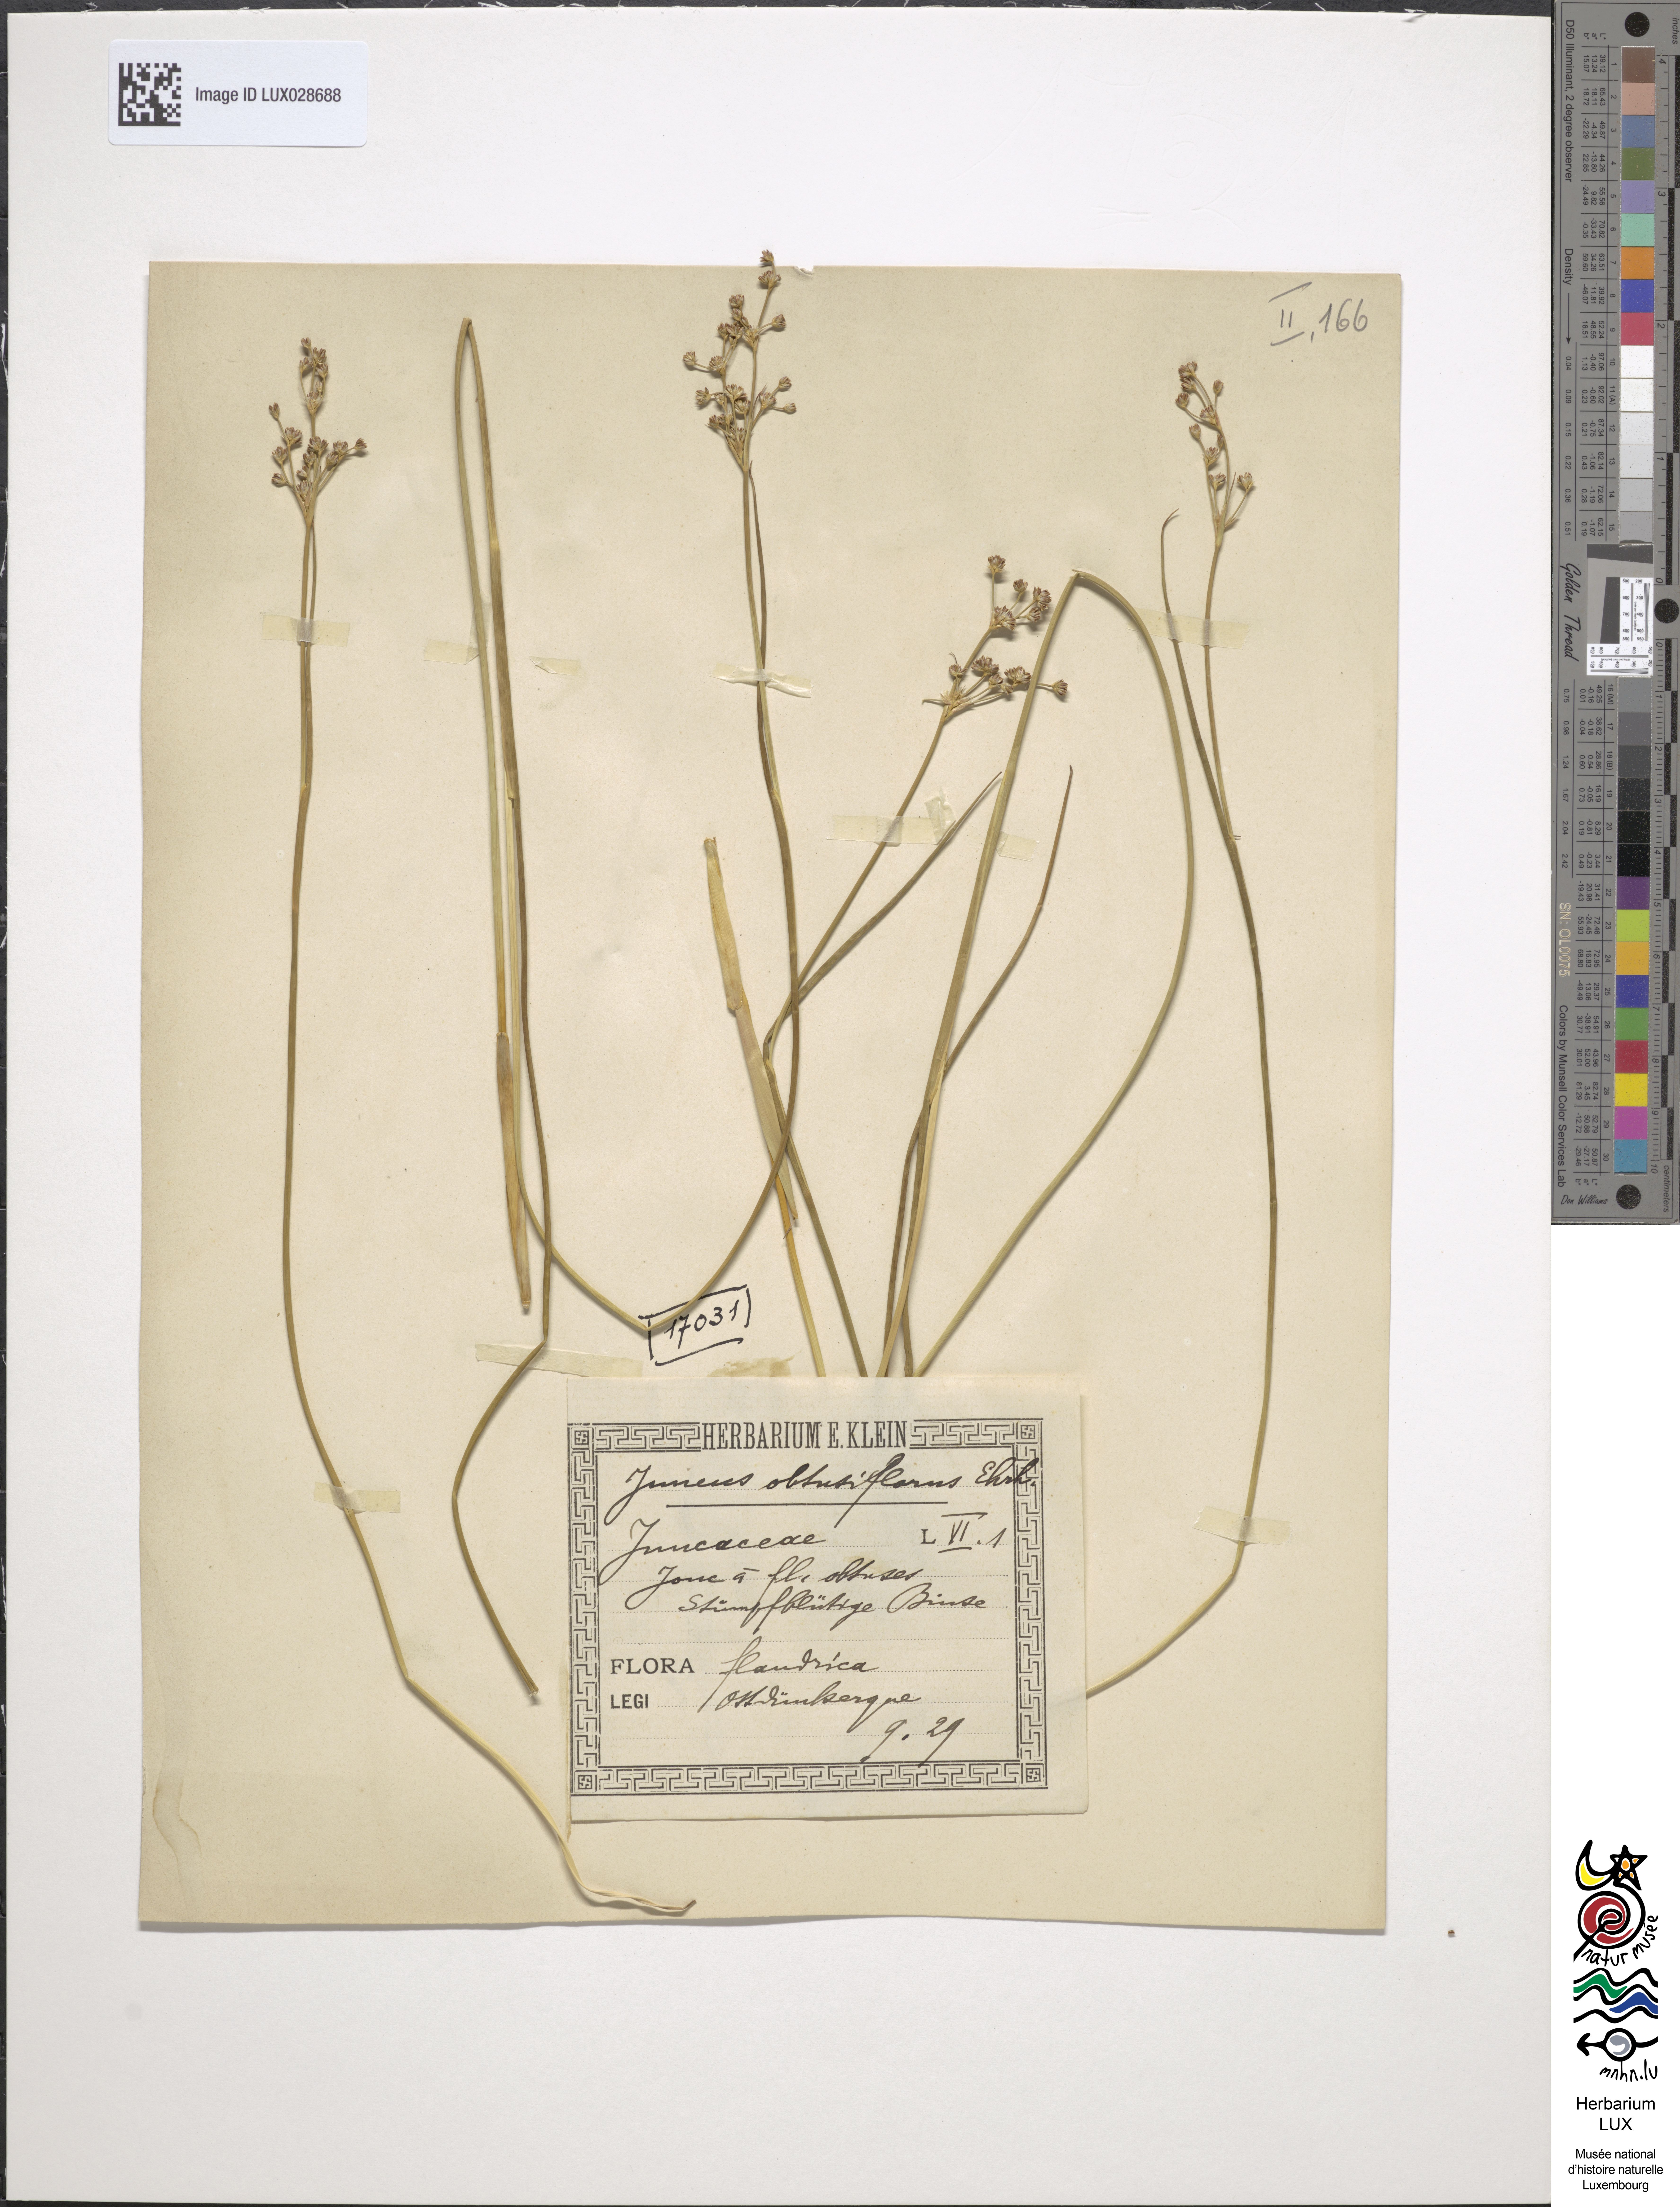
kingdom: Plantae
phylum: Tracheophyta
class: Liliopsida
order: Poales
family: Juncaceae
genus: Juncus
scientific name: Juncus subnodulosus
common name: Blunt-flowered rush
